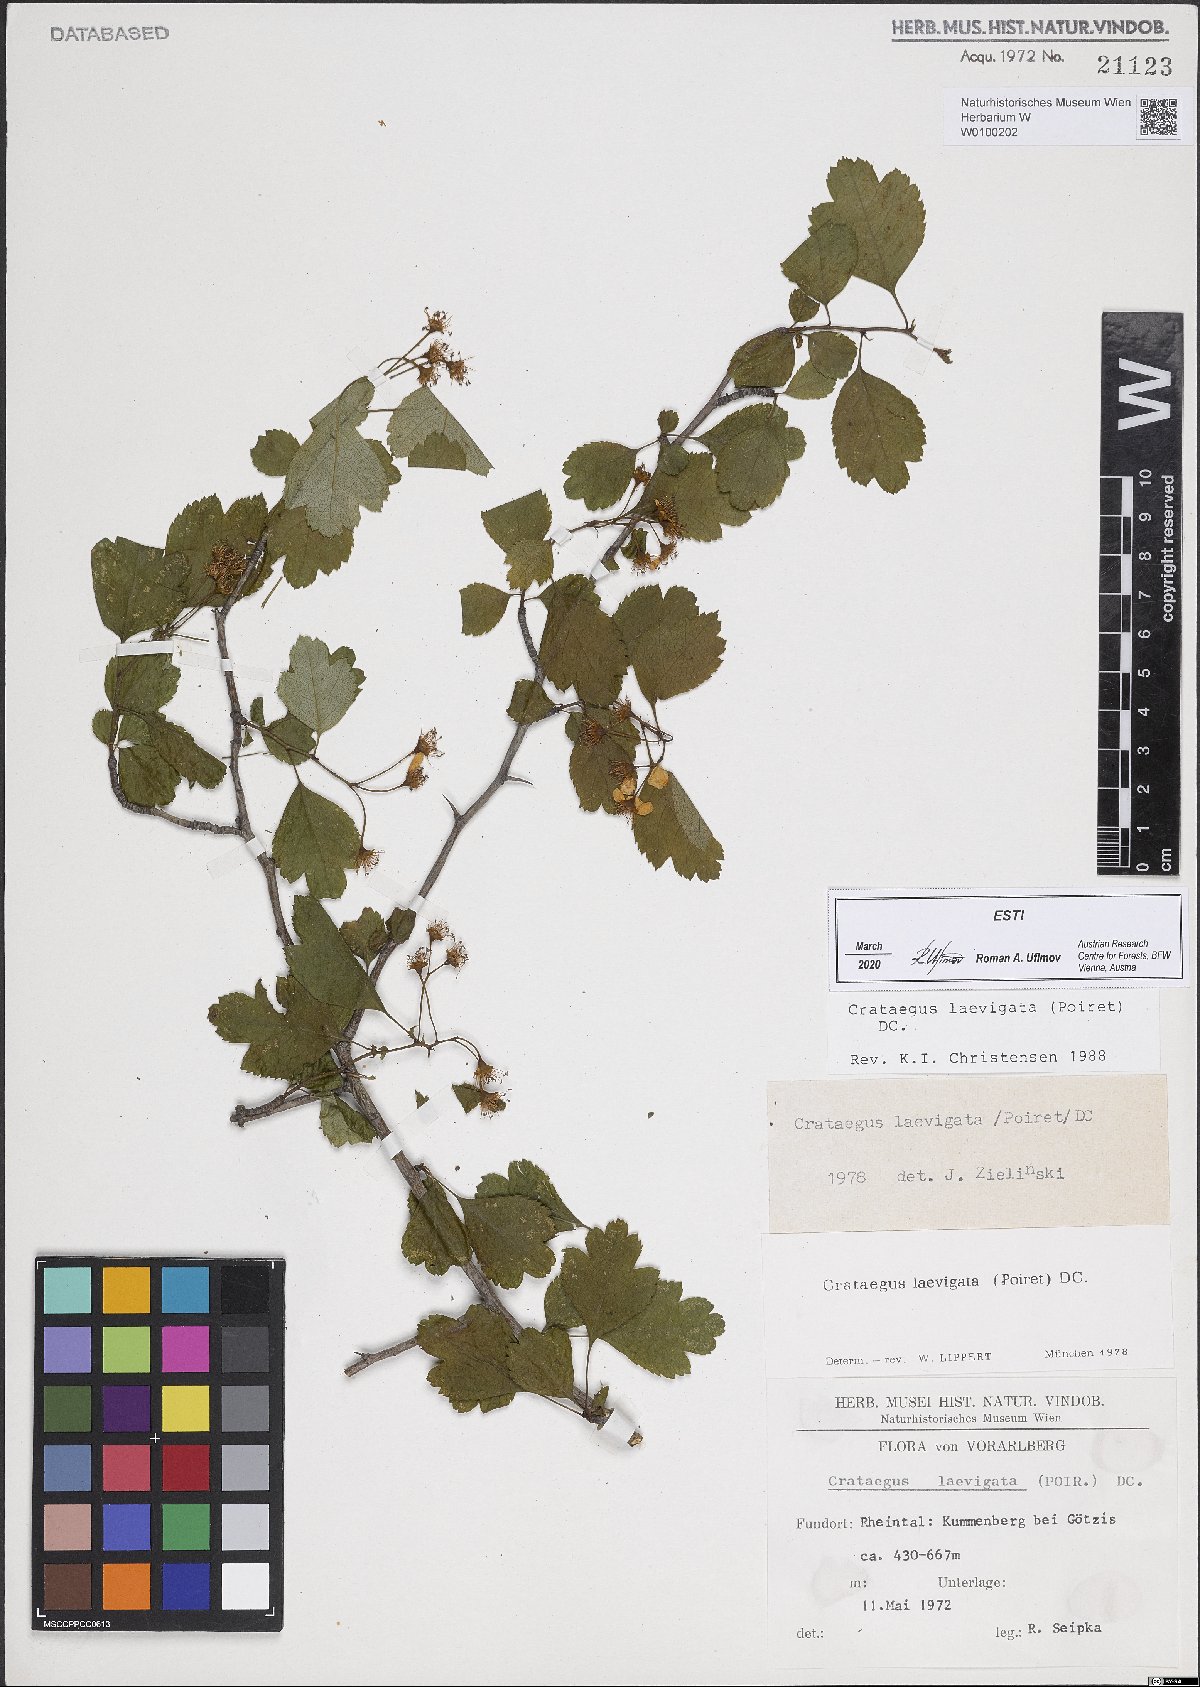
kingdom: Plantae
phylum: Tracheophyta
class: Magnoliopsida
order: Rosales
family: Rosaceae
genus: Crataegus
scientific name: Crataegus laevigata
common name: Midland hawthorn
